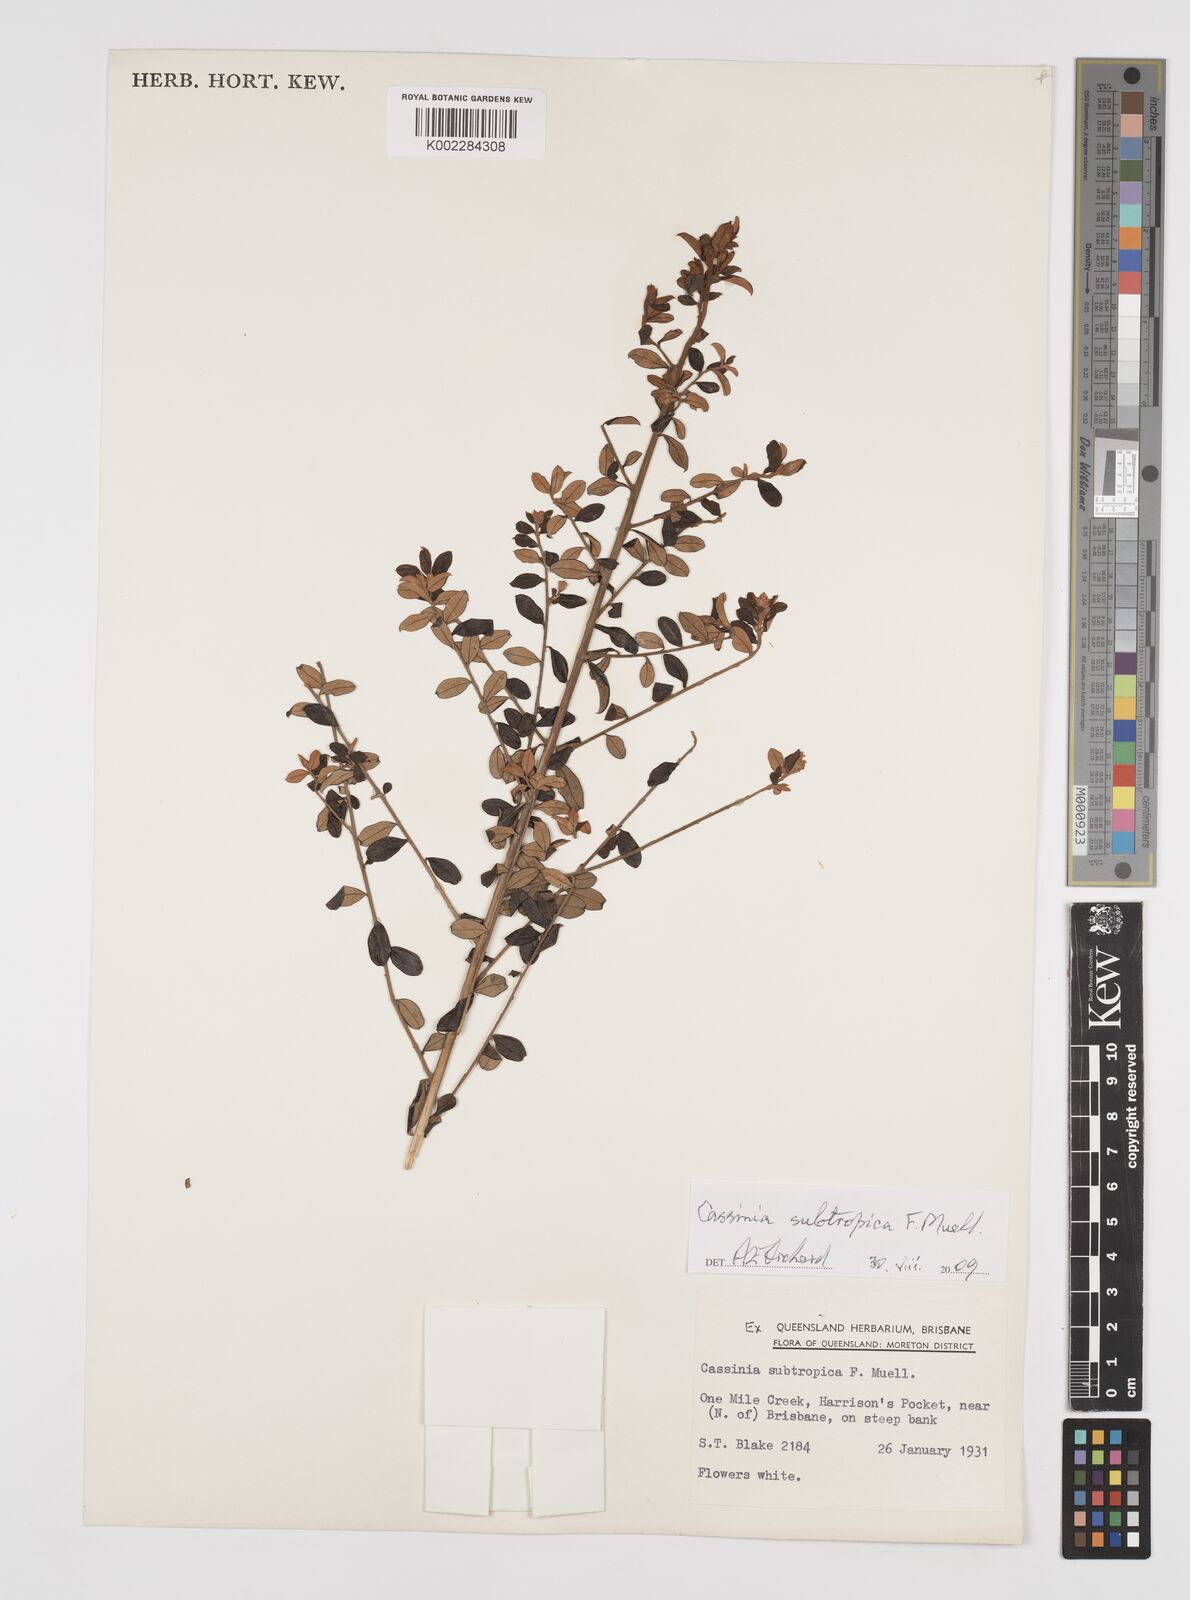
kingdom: Plantae
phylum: Tracheophyta
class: Magnoliopsida
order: Asterales
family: Asteraceae
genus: Cassinia
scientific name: Cassinia subtropica
